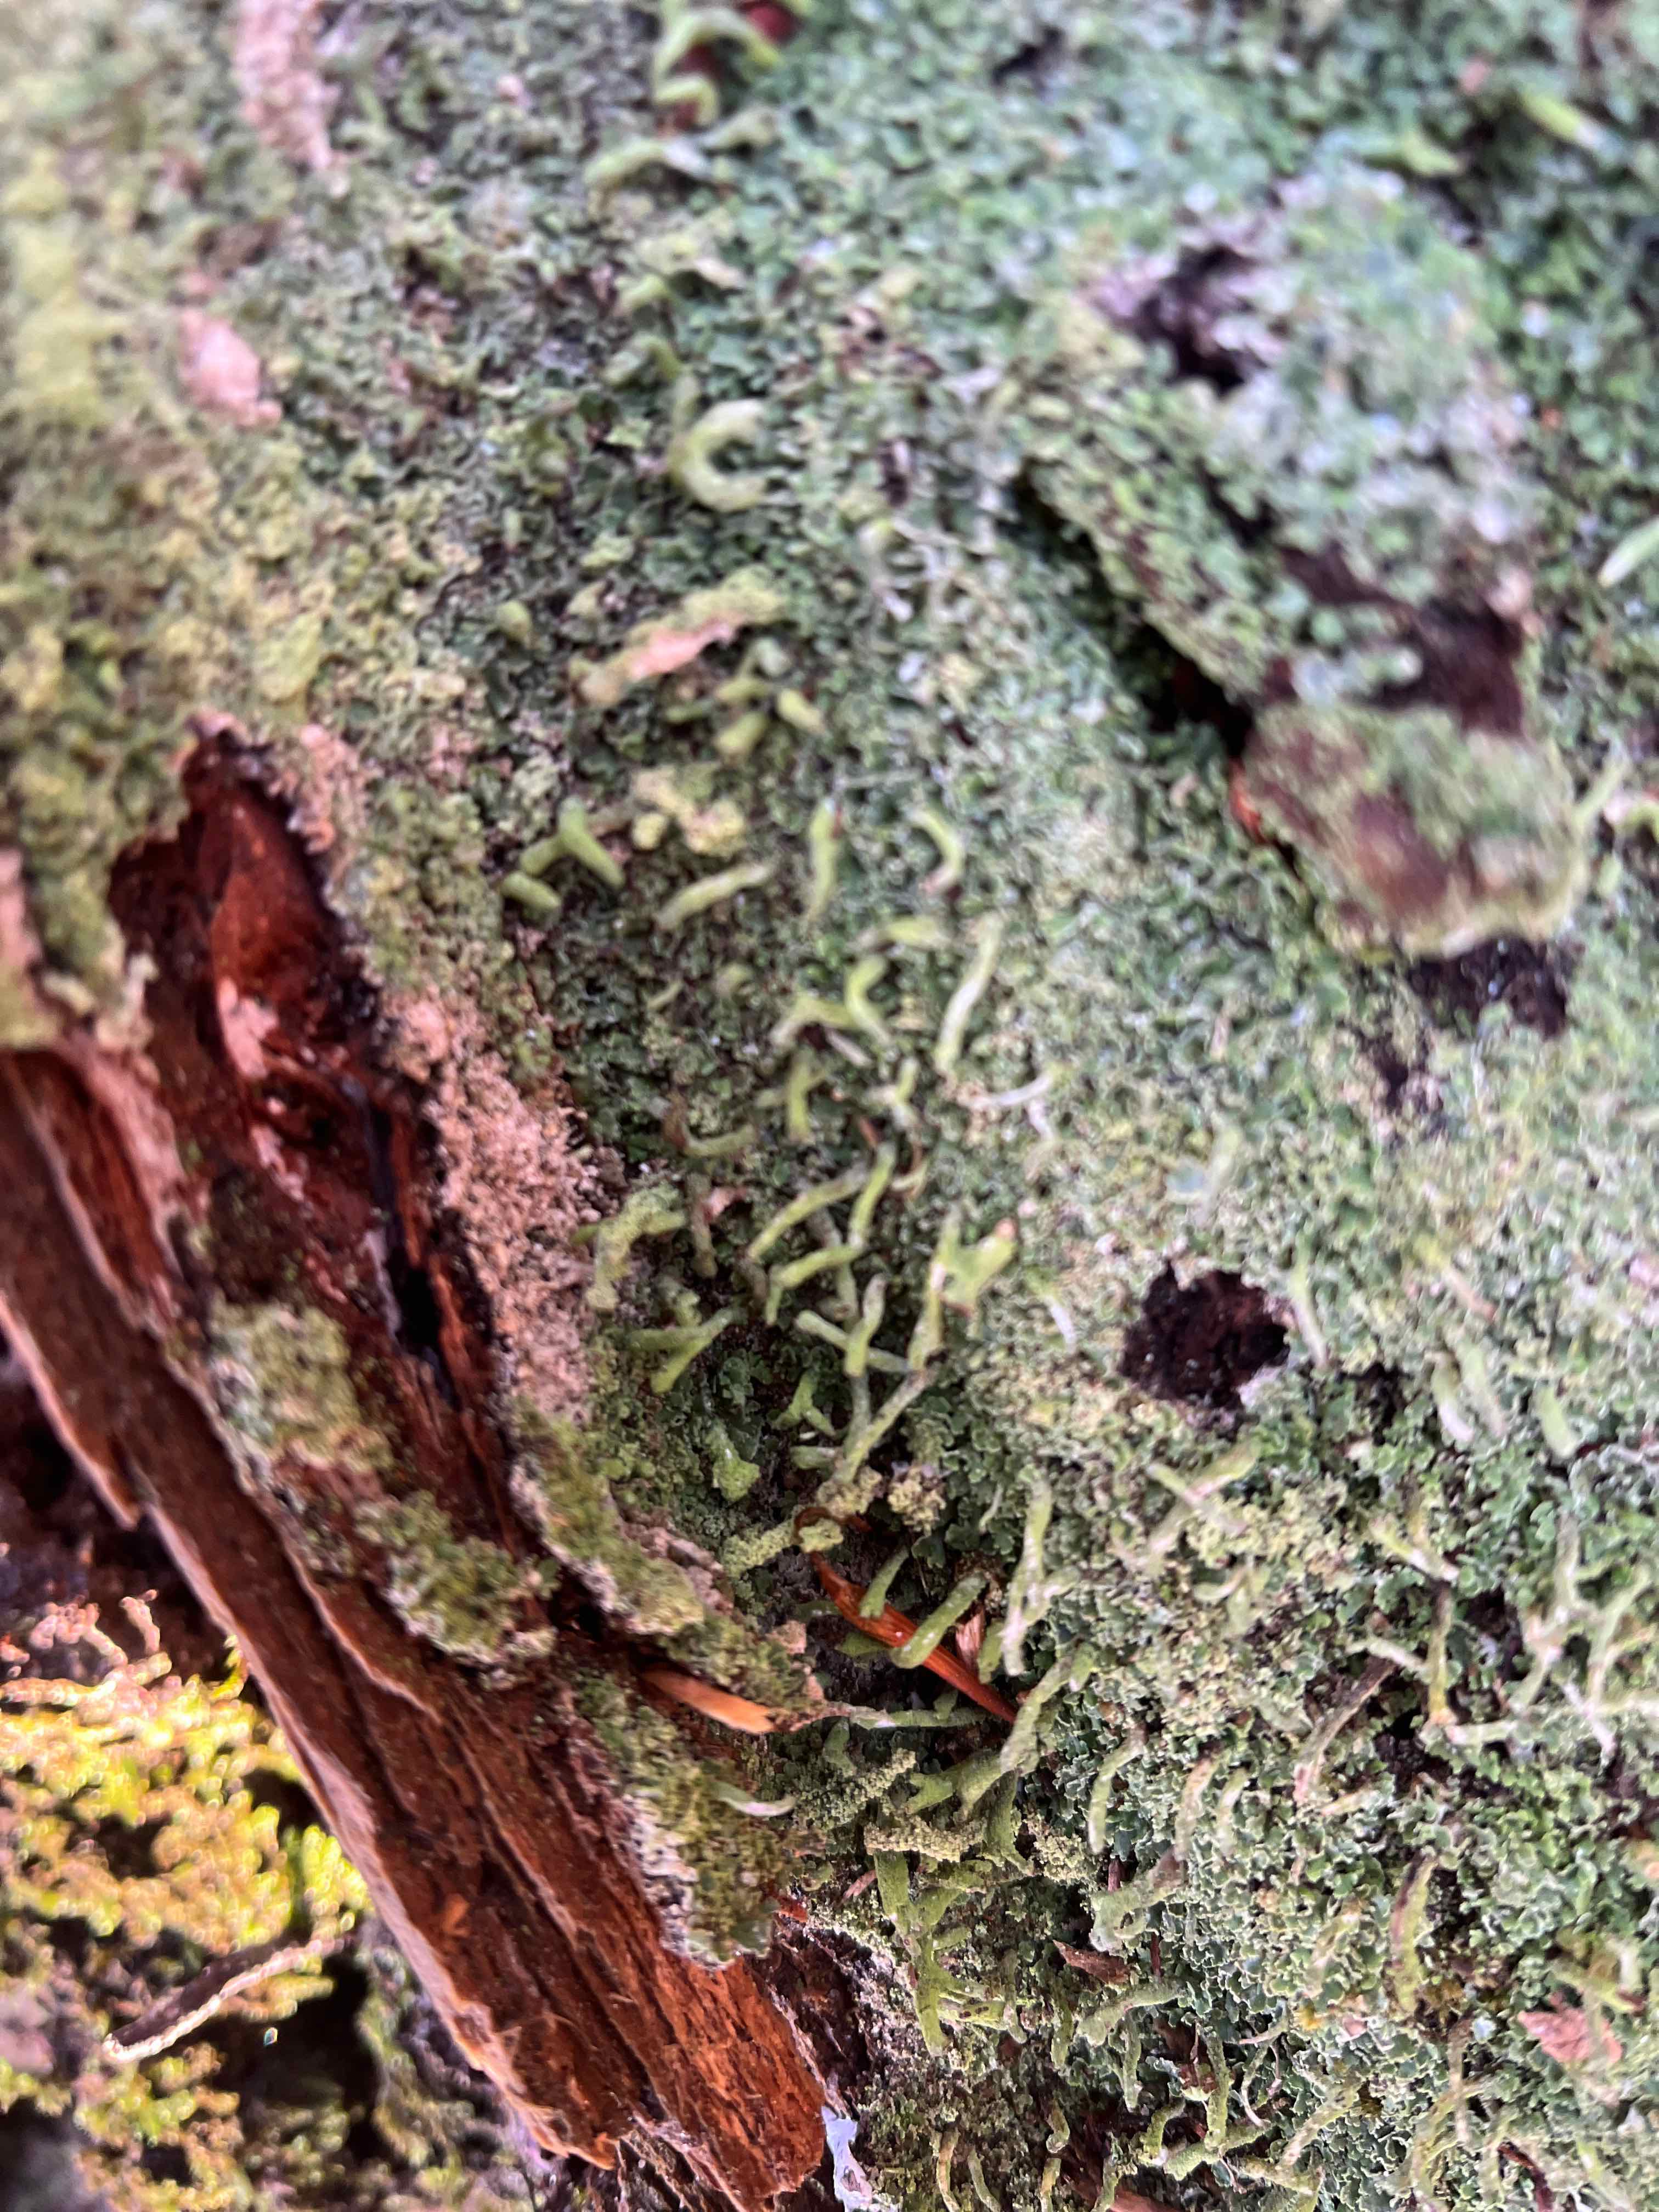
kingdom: Fungi
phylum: Ascomycota
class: Lecanoromycetes
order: Lecanorales
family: Cladoniaceae
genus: Cladonia
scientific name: Cladonia coniocraea
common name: træfods-bægerlav
